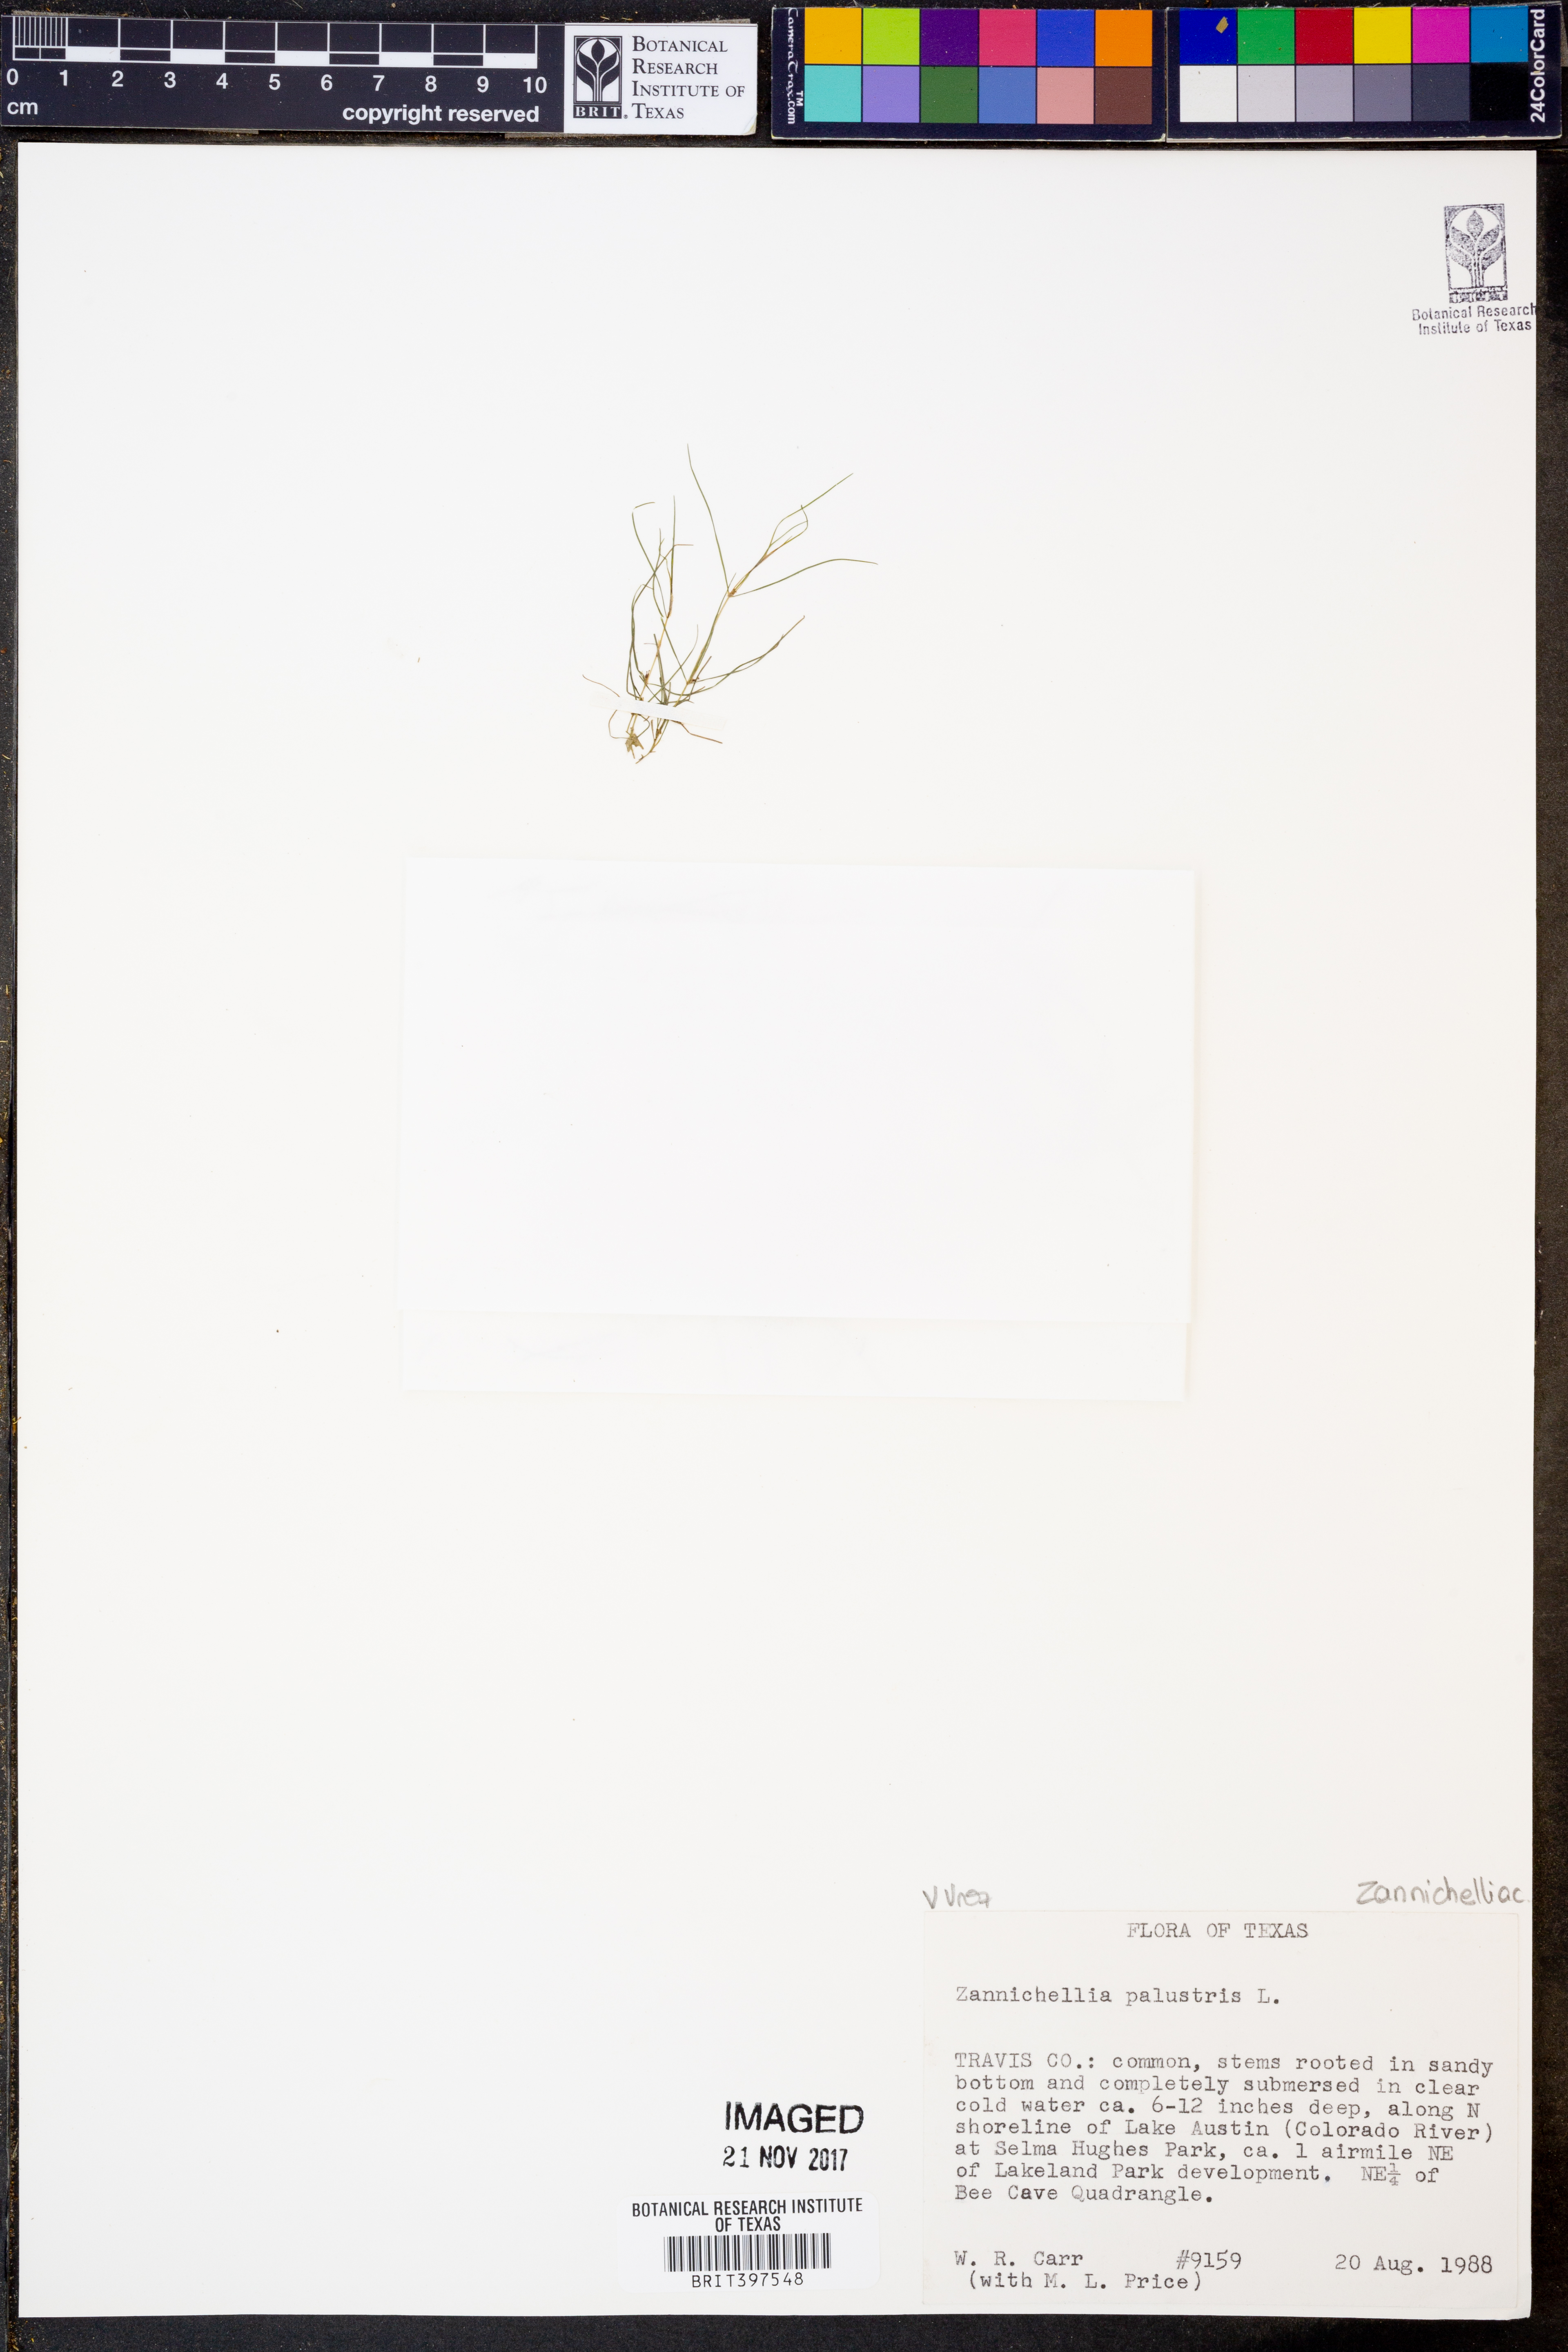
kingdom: Plantae
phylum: Tracheophyta
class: Liliopsida
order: Alismatales
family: Potamogetonaceae
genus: Zannichellia
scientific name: Zannichellia palustris
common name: Horned pondweed
